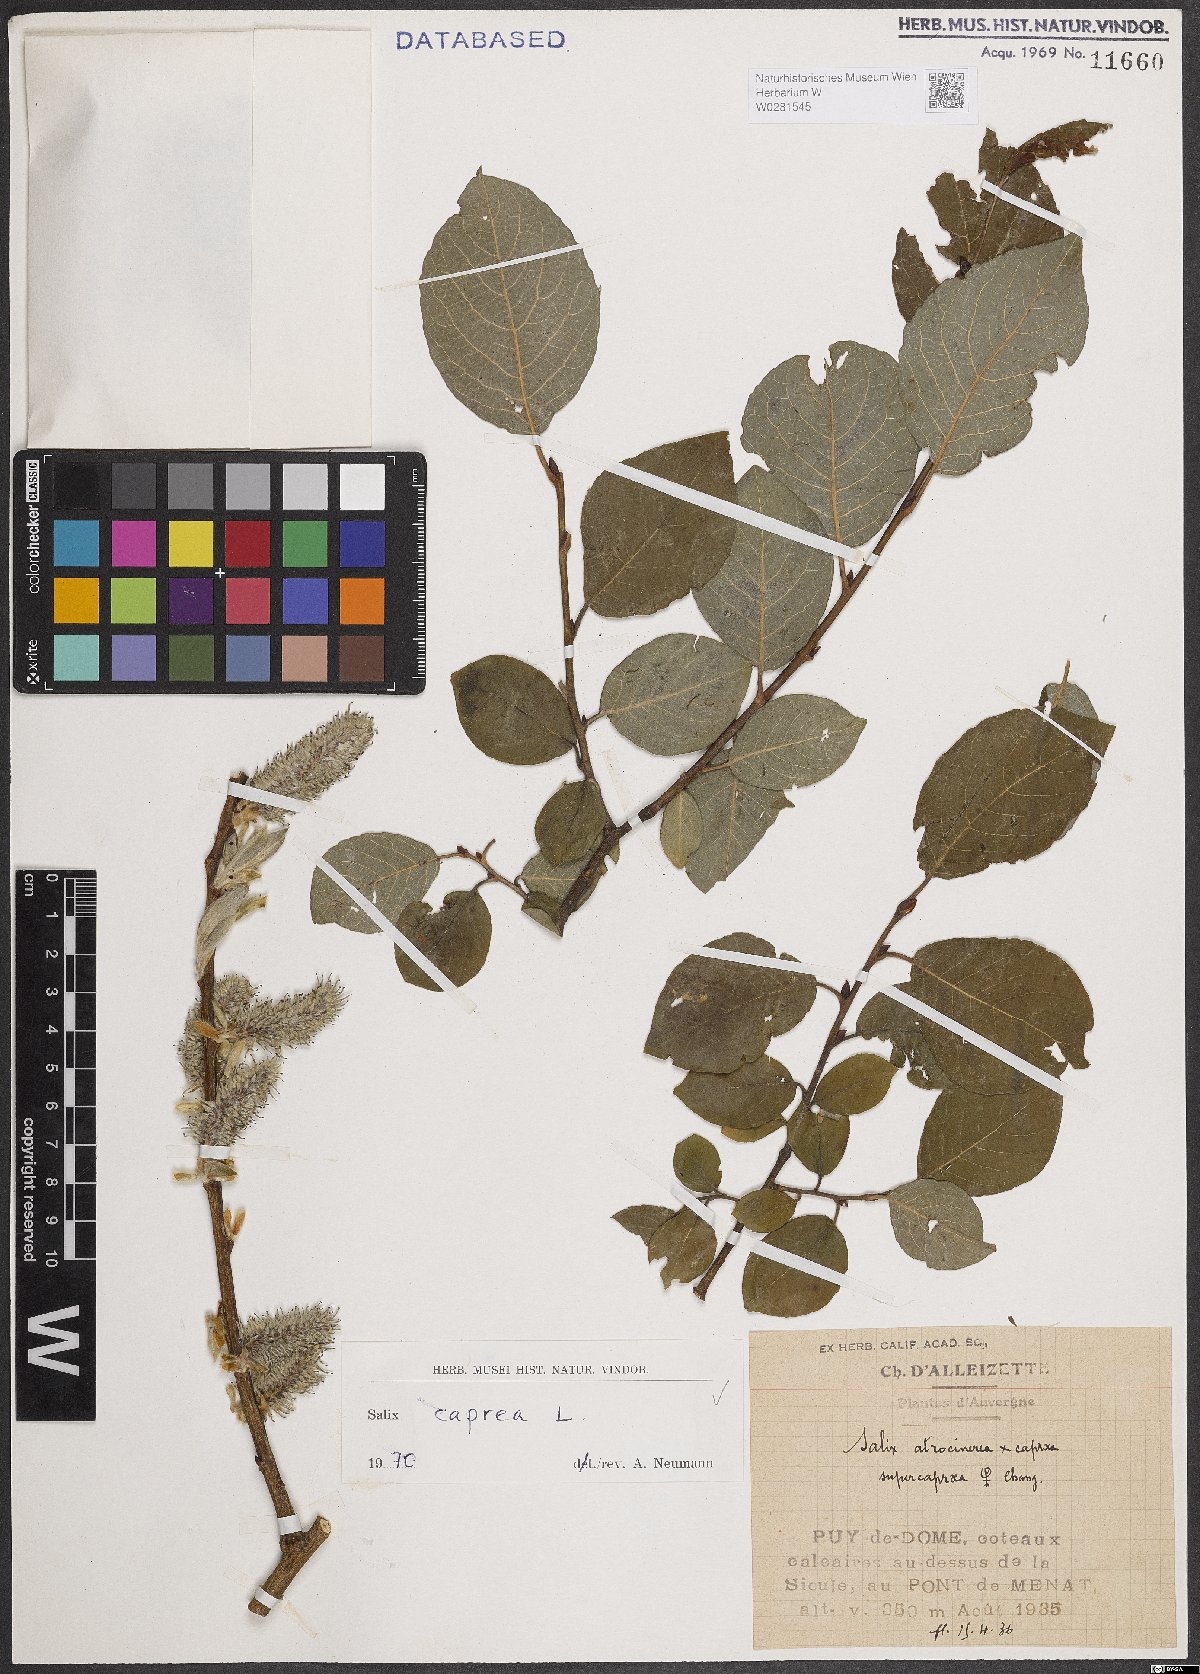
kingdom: Plantae
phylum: Tracheophyta
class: Magnoliopsida
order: Malpighiales
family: Salicaceae
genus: Salix
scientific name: Salix caprea
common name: Goat willow
